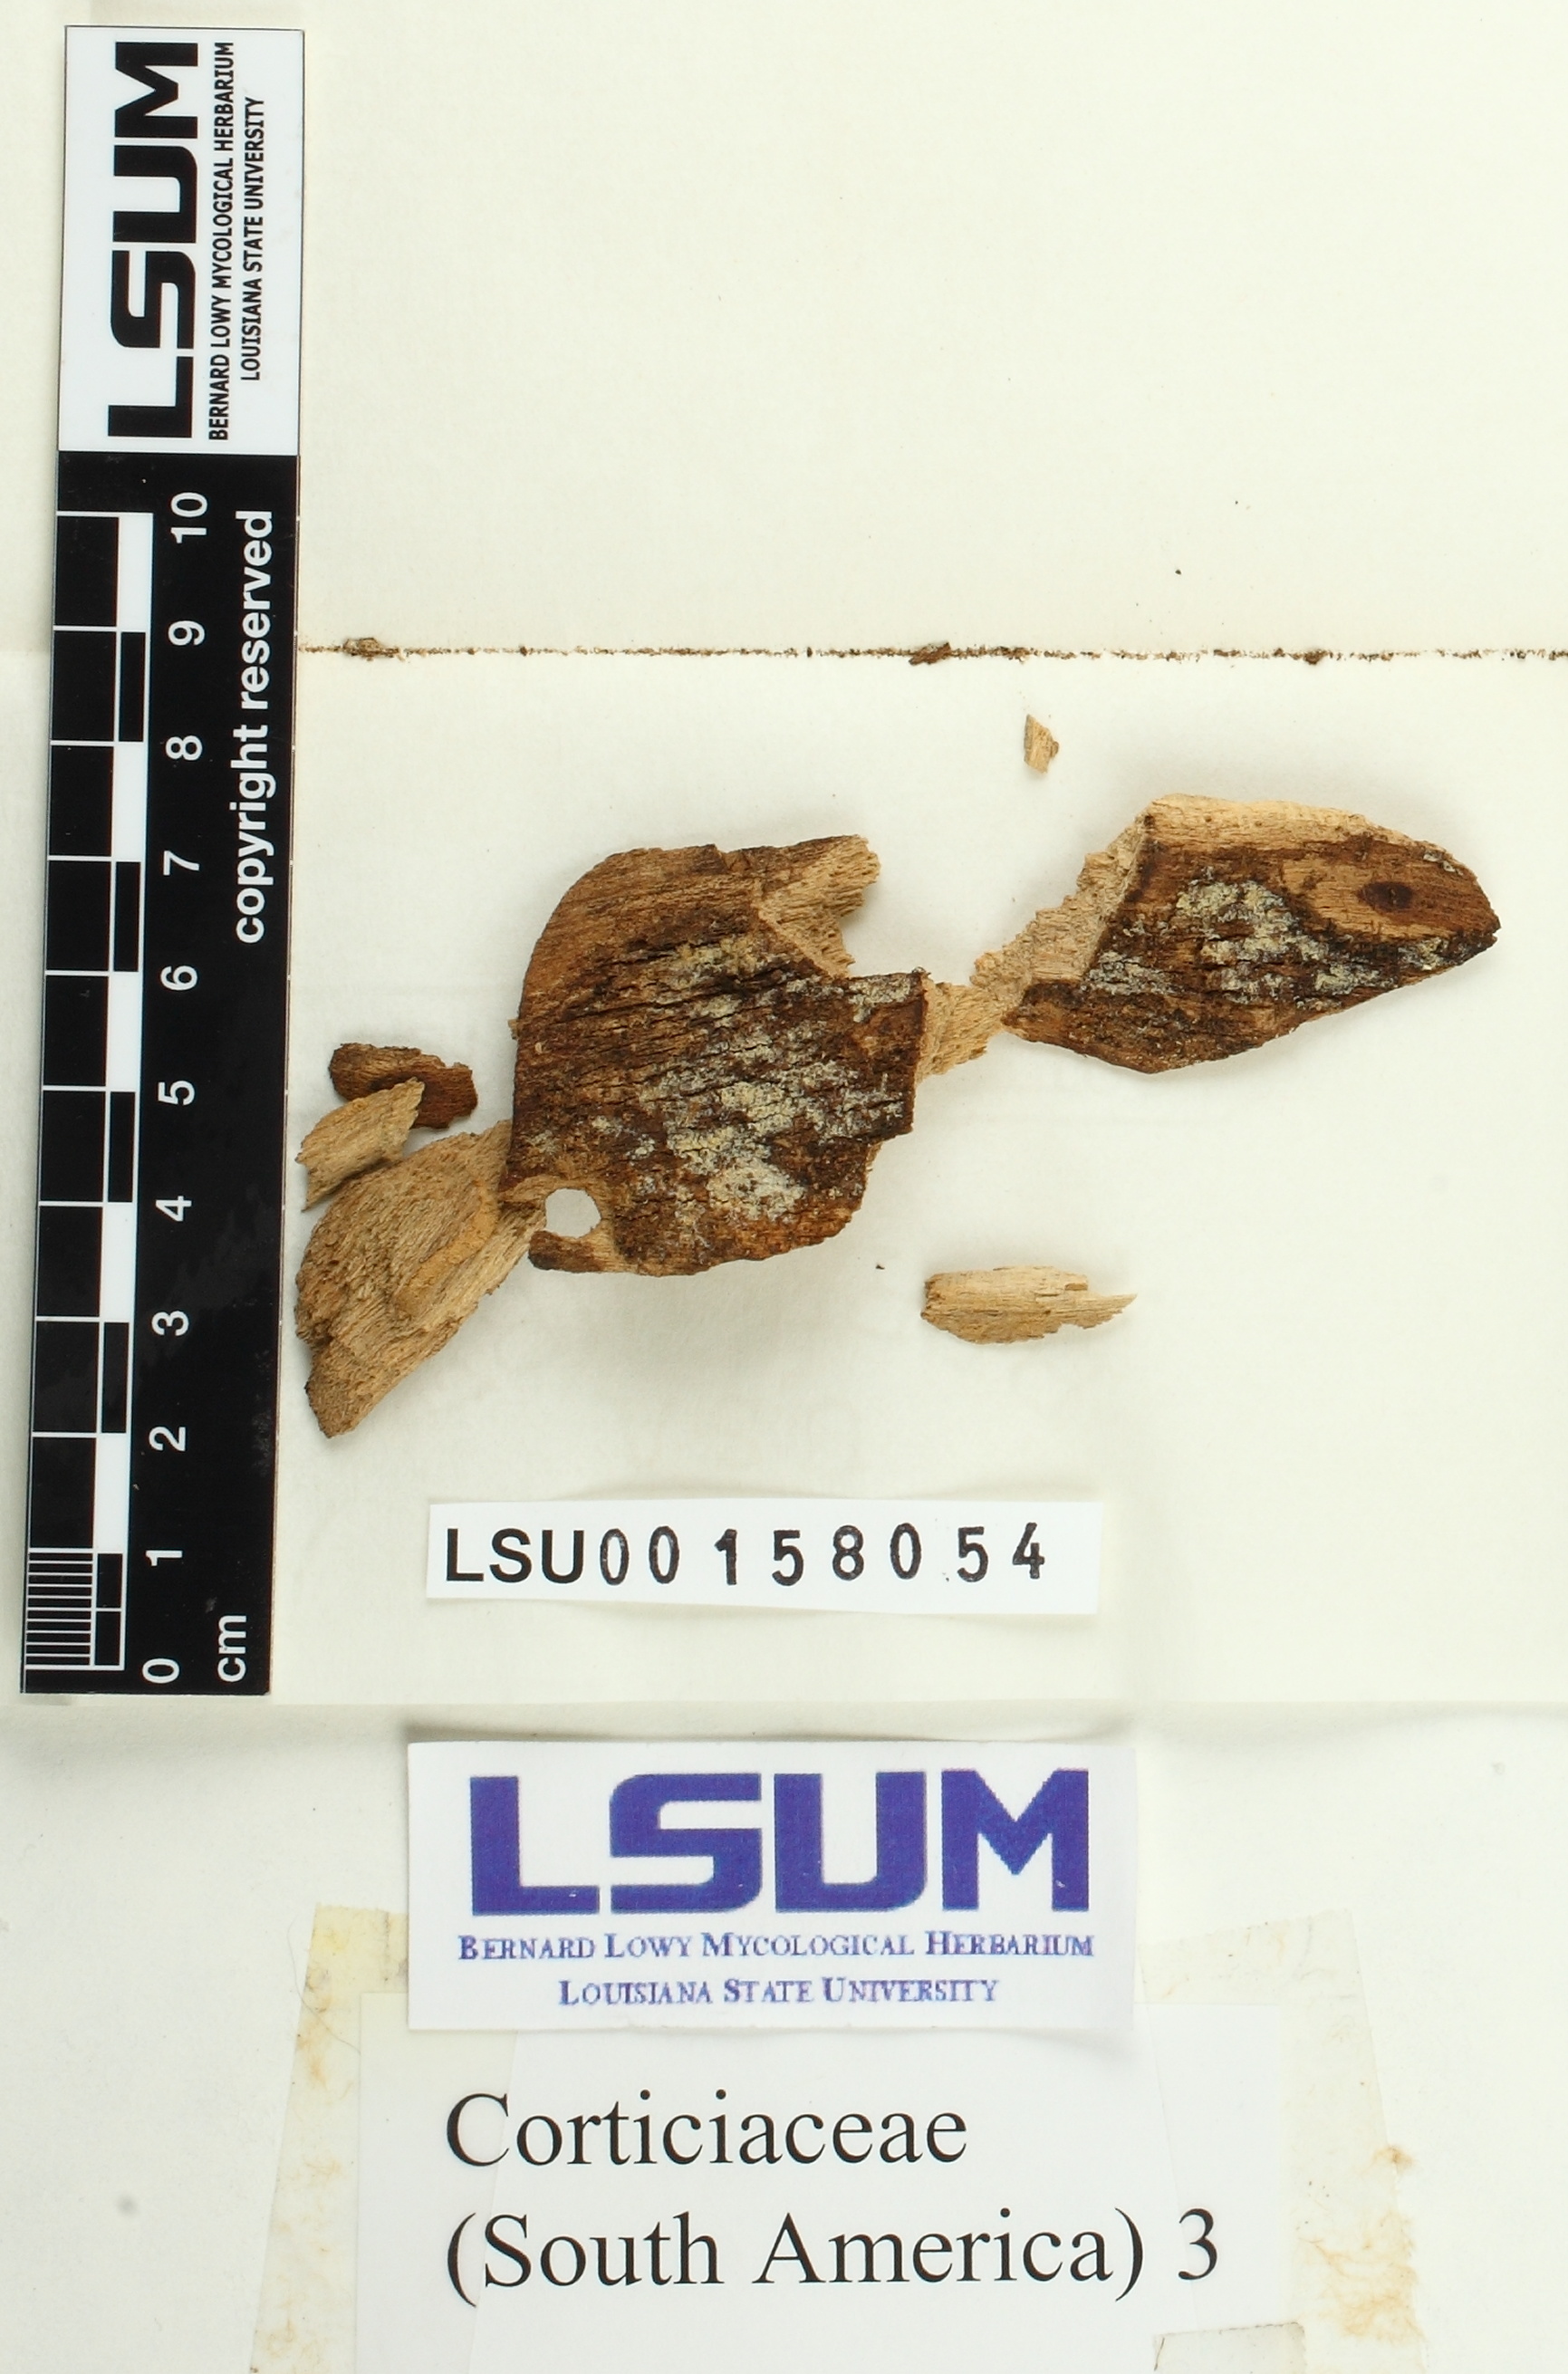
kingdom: Fungi
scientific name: Fungi
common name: Fungi
